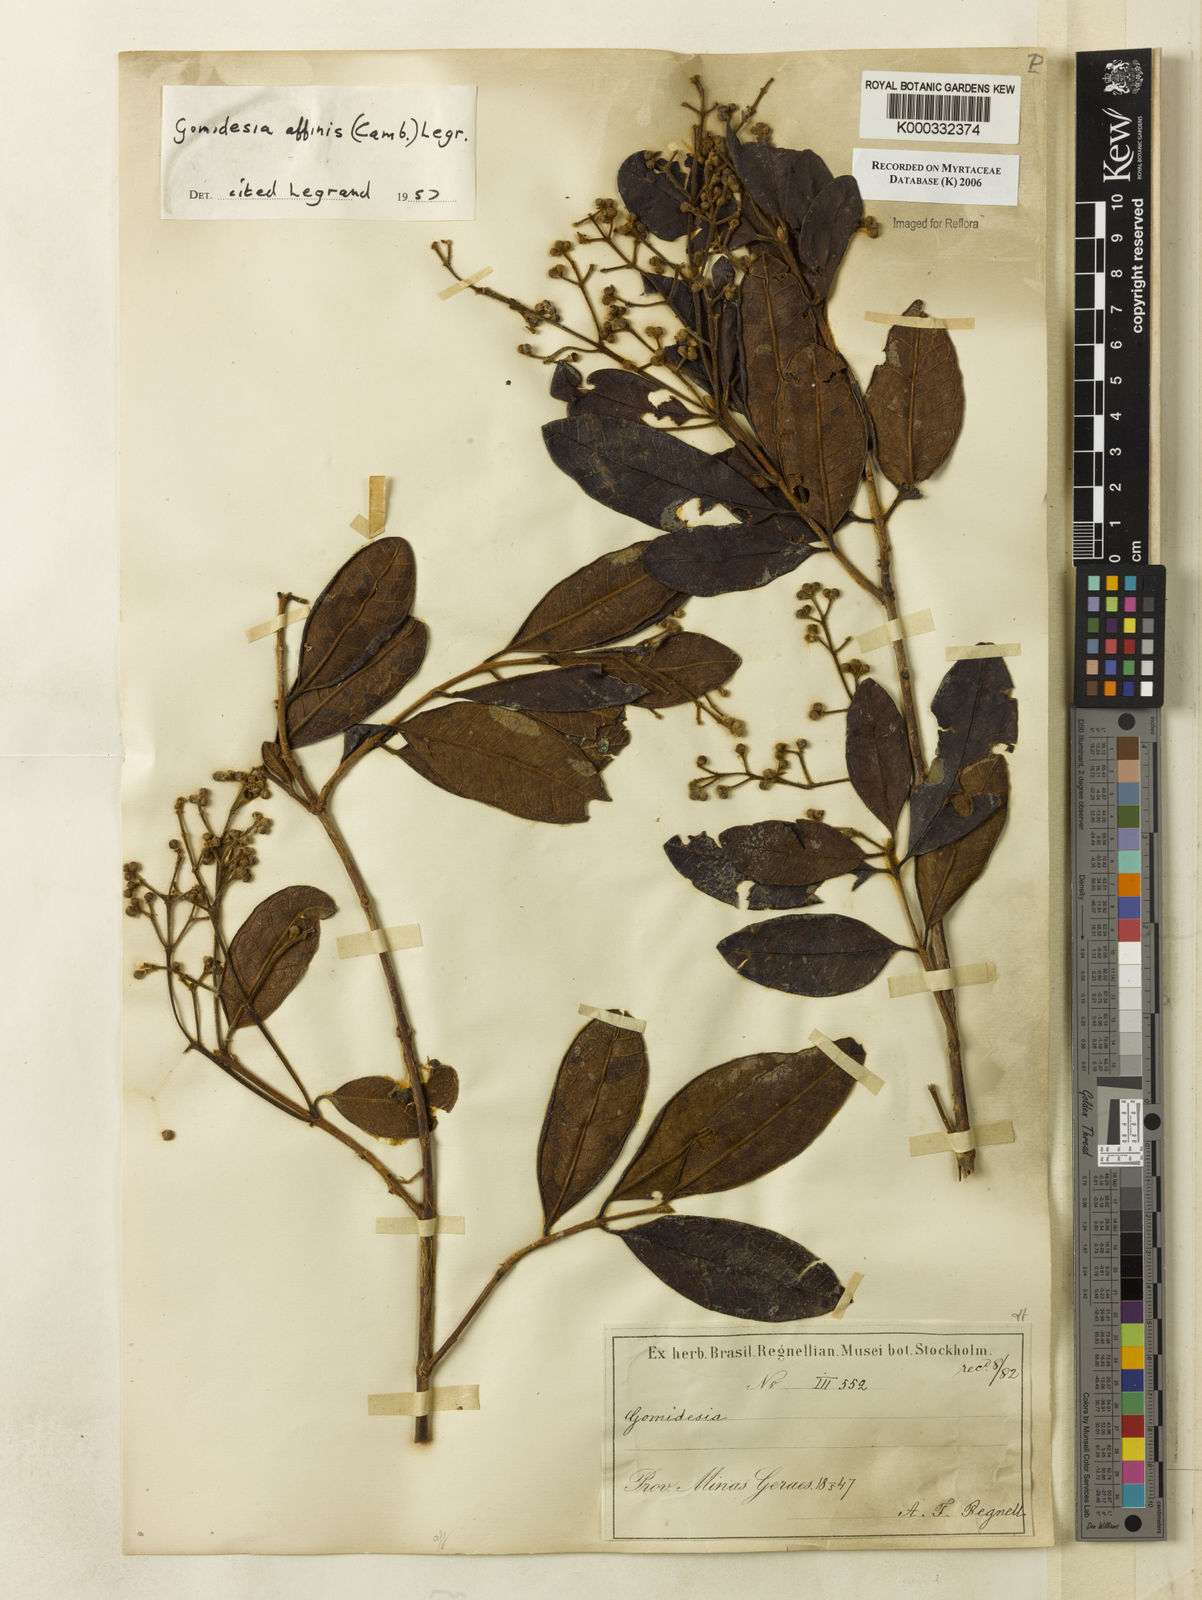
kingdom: Plantae
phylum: Tracheophyta
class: Magnoliopsida
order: Myrtales
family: Myrtaceae
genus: Myrcia
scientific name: Myrcia hebepetala
